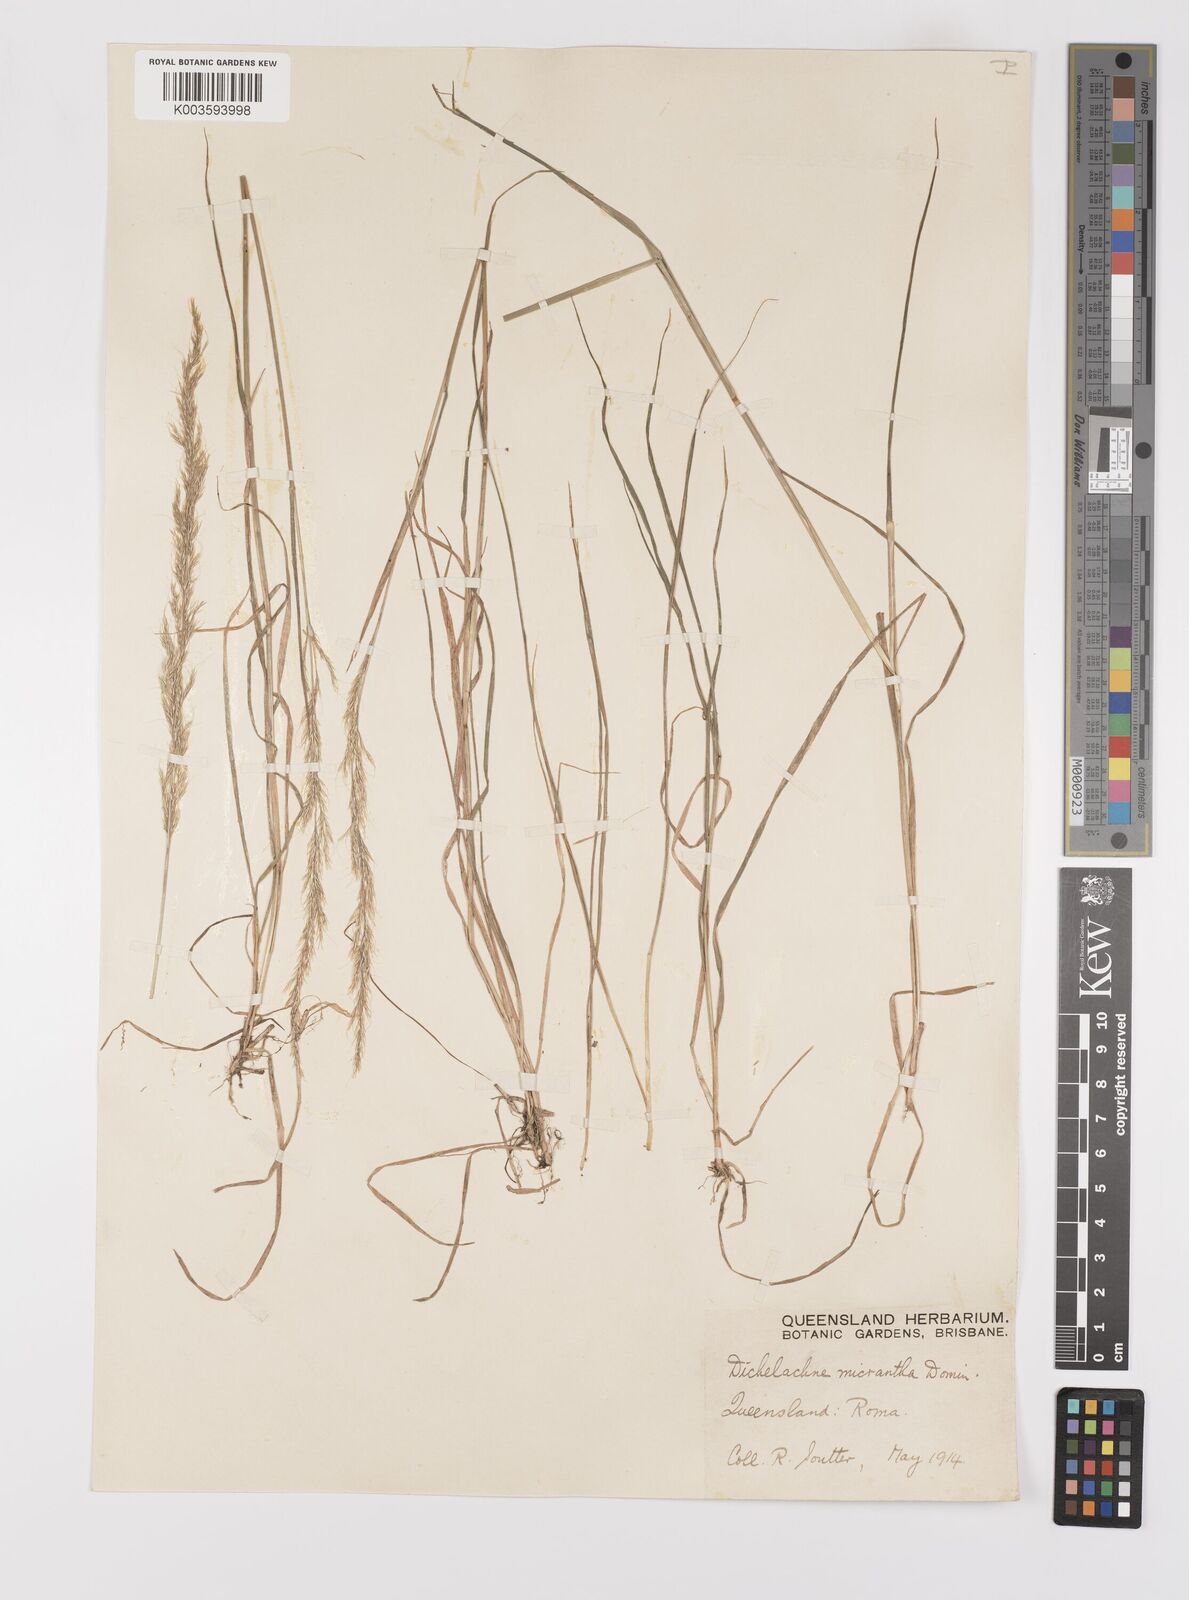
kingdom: Plantae
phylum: Tracheophyta
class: Liliopsida
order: Poales
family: Poaceae
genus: Dichelachne
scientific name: Dichelachne micrantha
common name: Plumegrass
